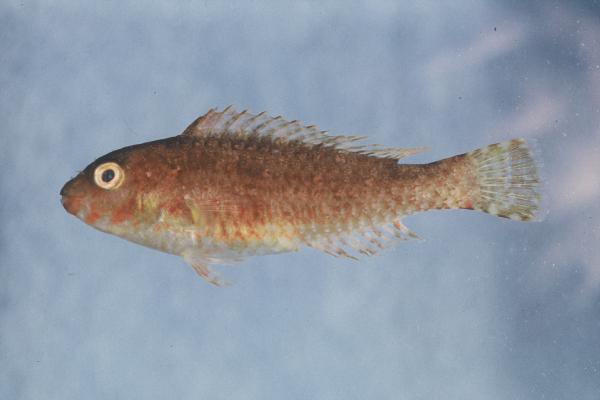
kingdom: Animalia
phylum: Chordata
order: Perciformes
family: Scaridae
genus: Sparisoma
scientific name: Sparisoma cretense
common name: Parrotfish
